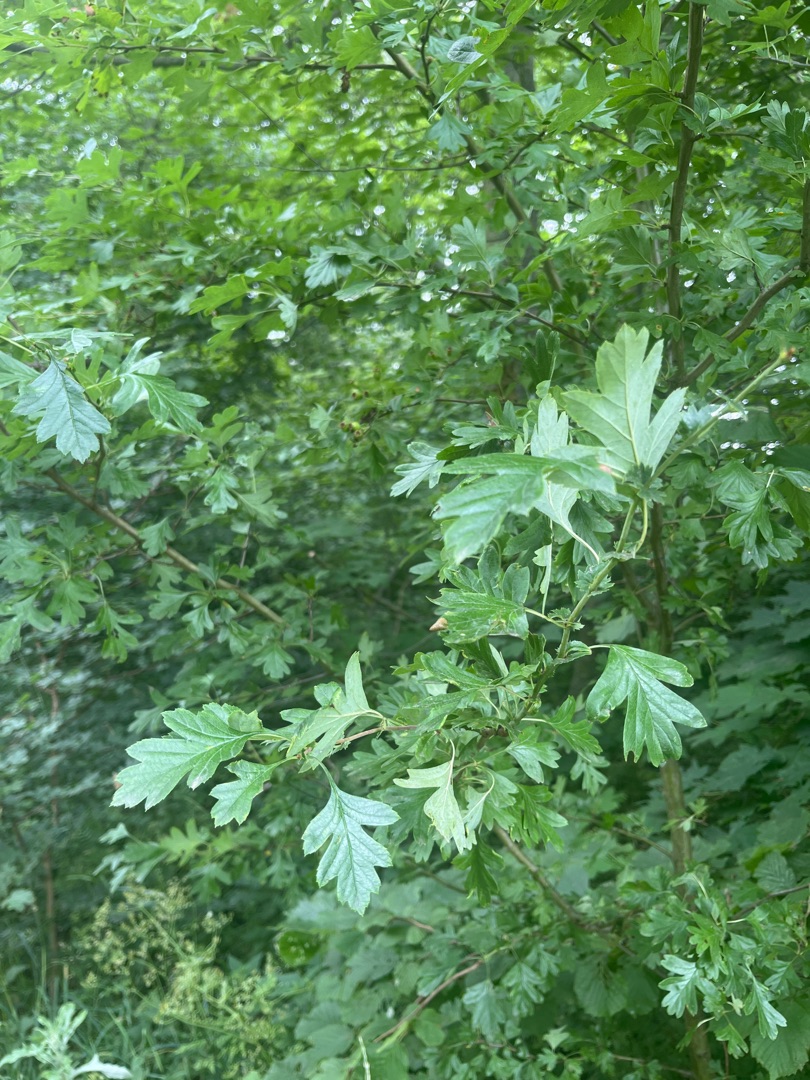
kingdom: Plantae
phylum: Tracheophyta
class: Magnoliopsida
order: Rosales
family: Rosaceae
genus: Crataegus
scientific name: Crataegus monogyna
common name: Engriflet hvidtjørn
